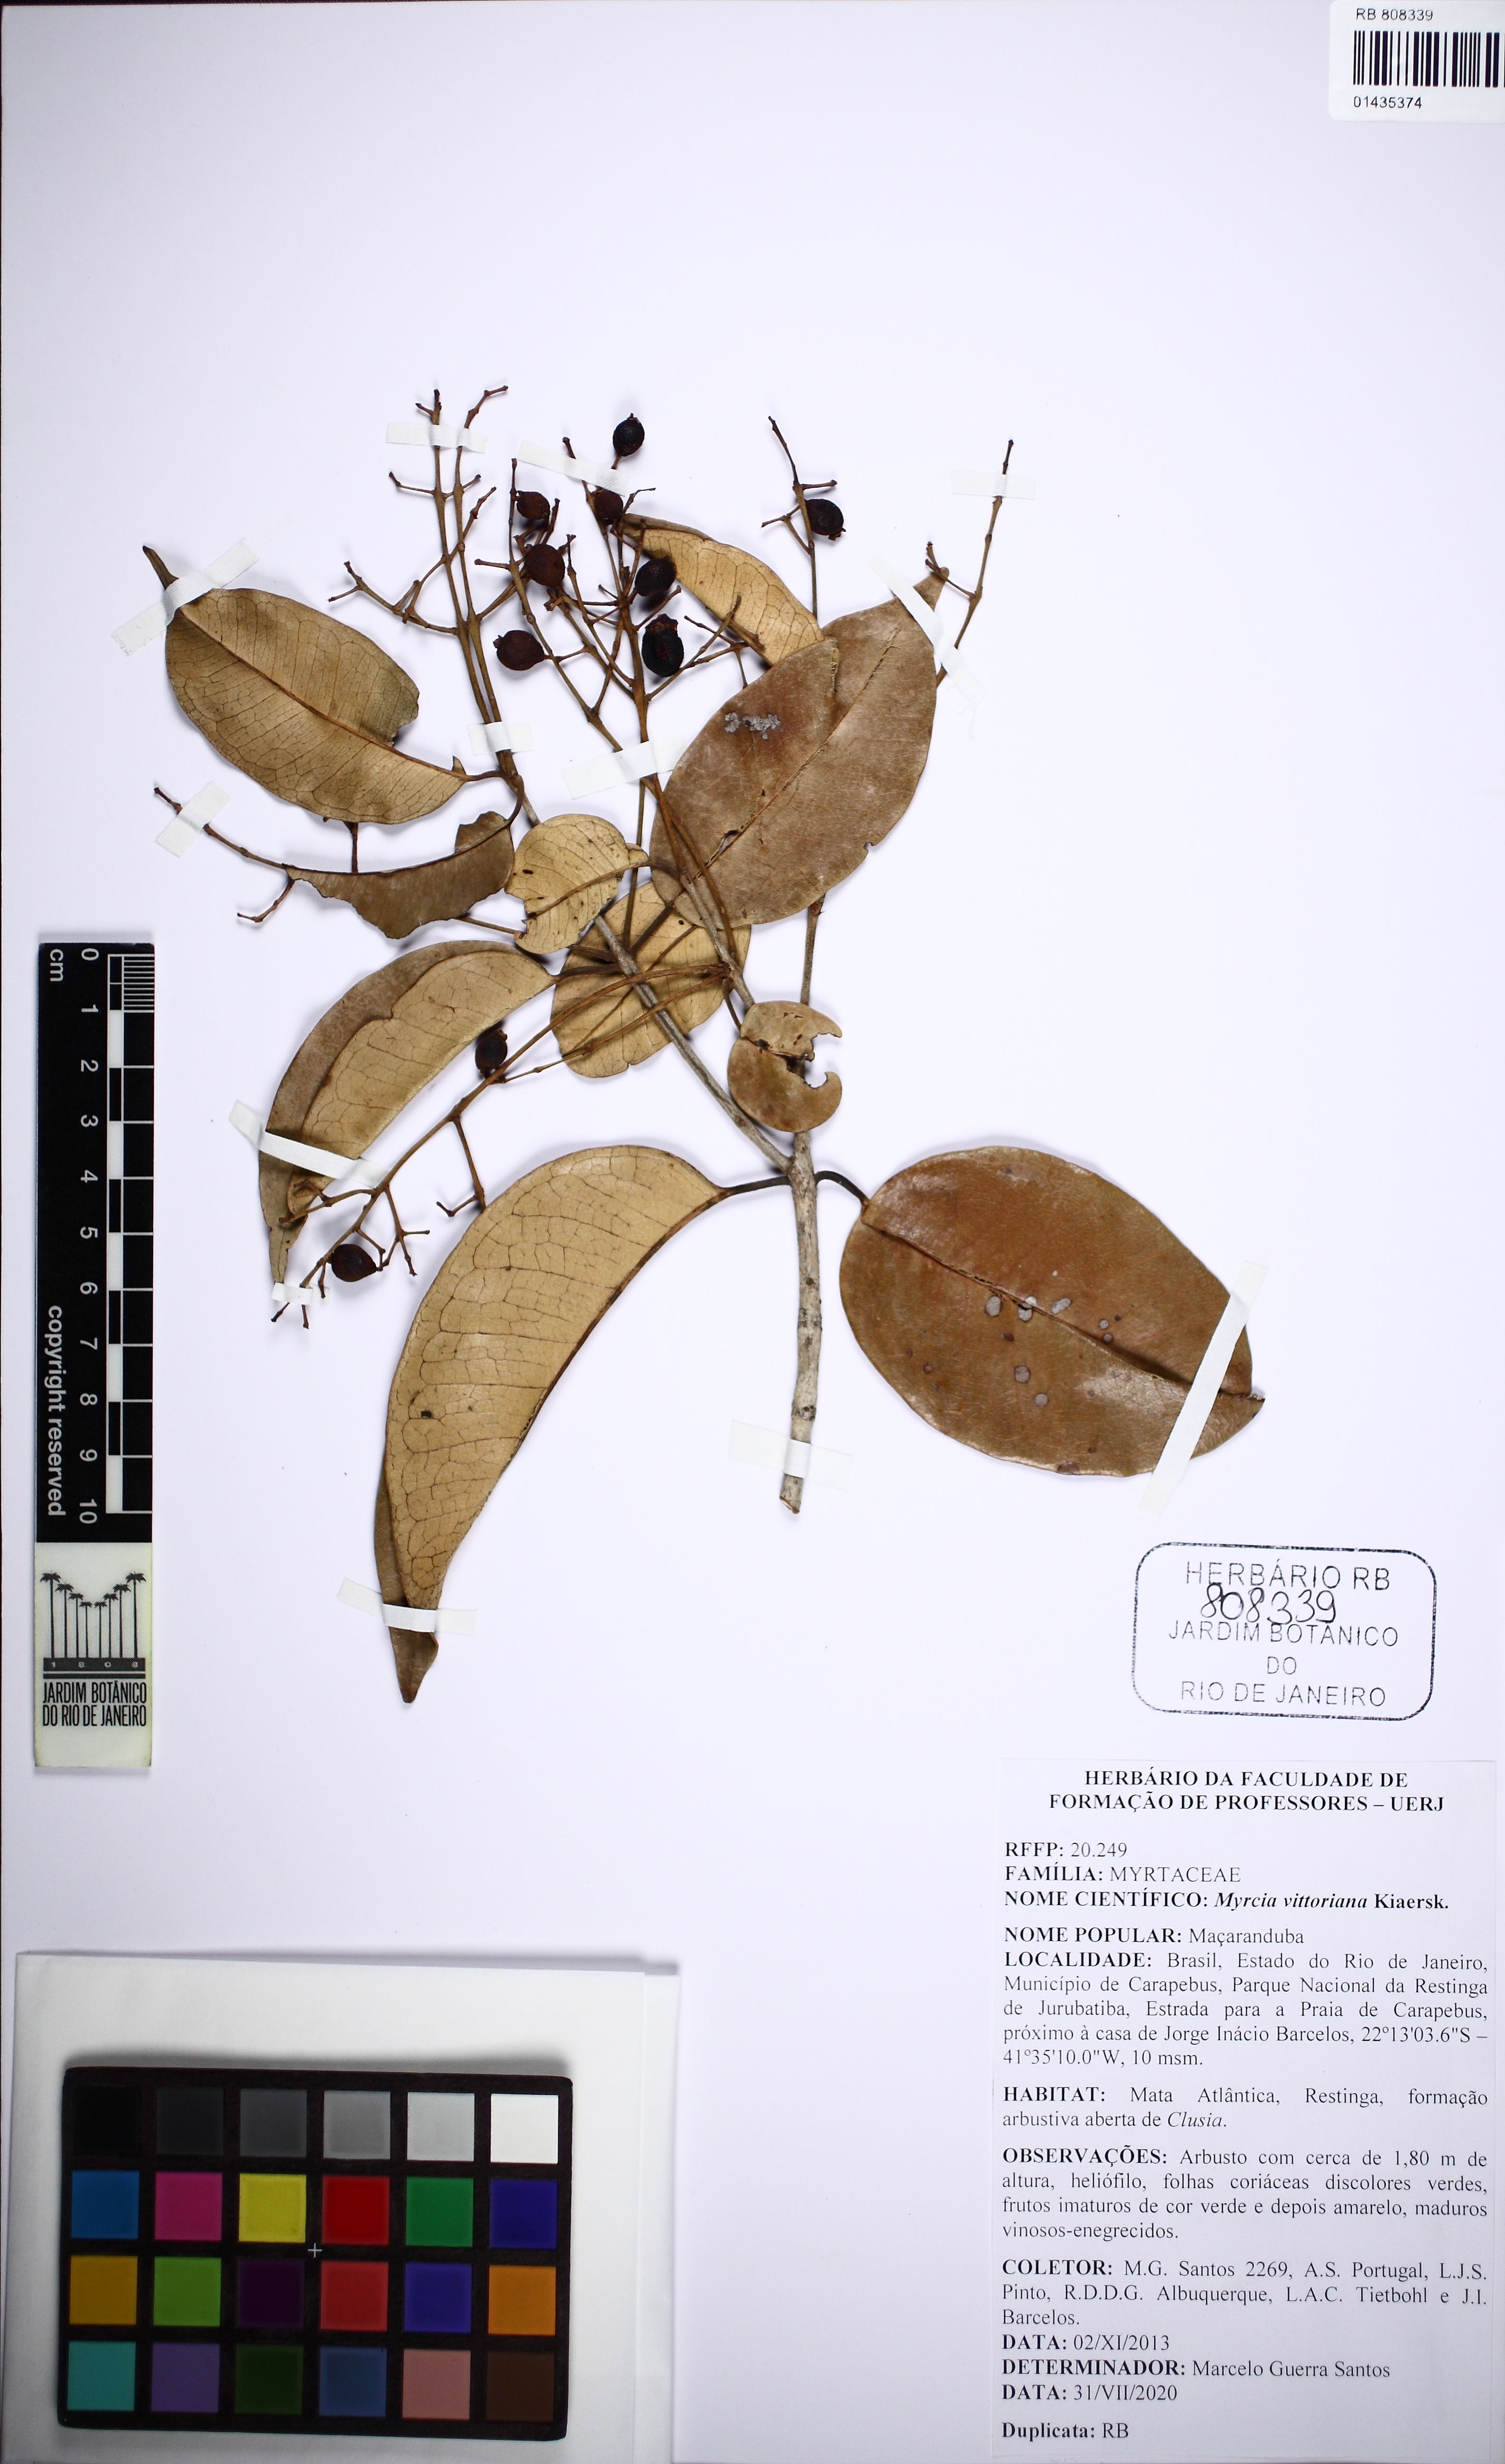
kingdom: Plantae
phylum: Tracheophyta
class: Magnoliopsida
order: Myrtales
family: Myrtaceae
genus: Myrcia
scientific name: Myrcia vittoriana
